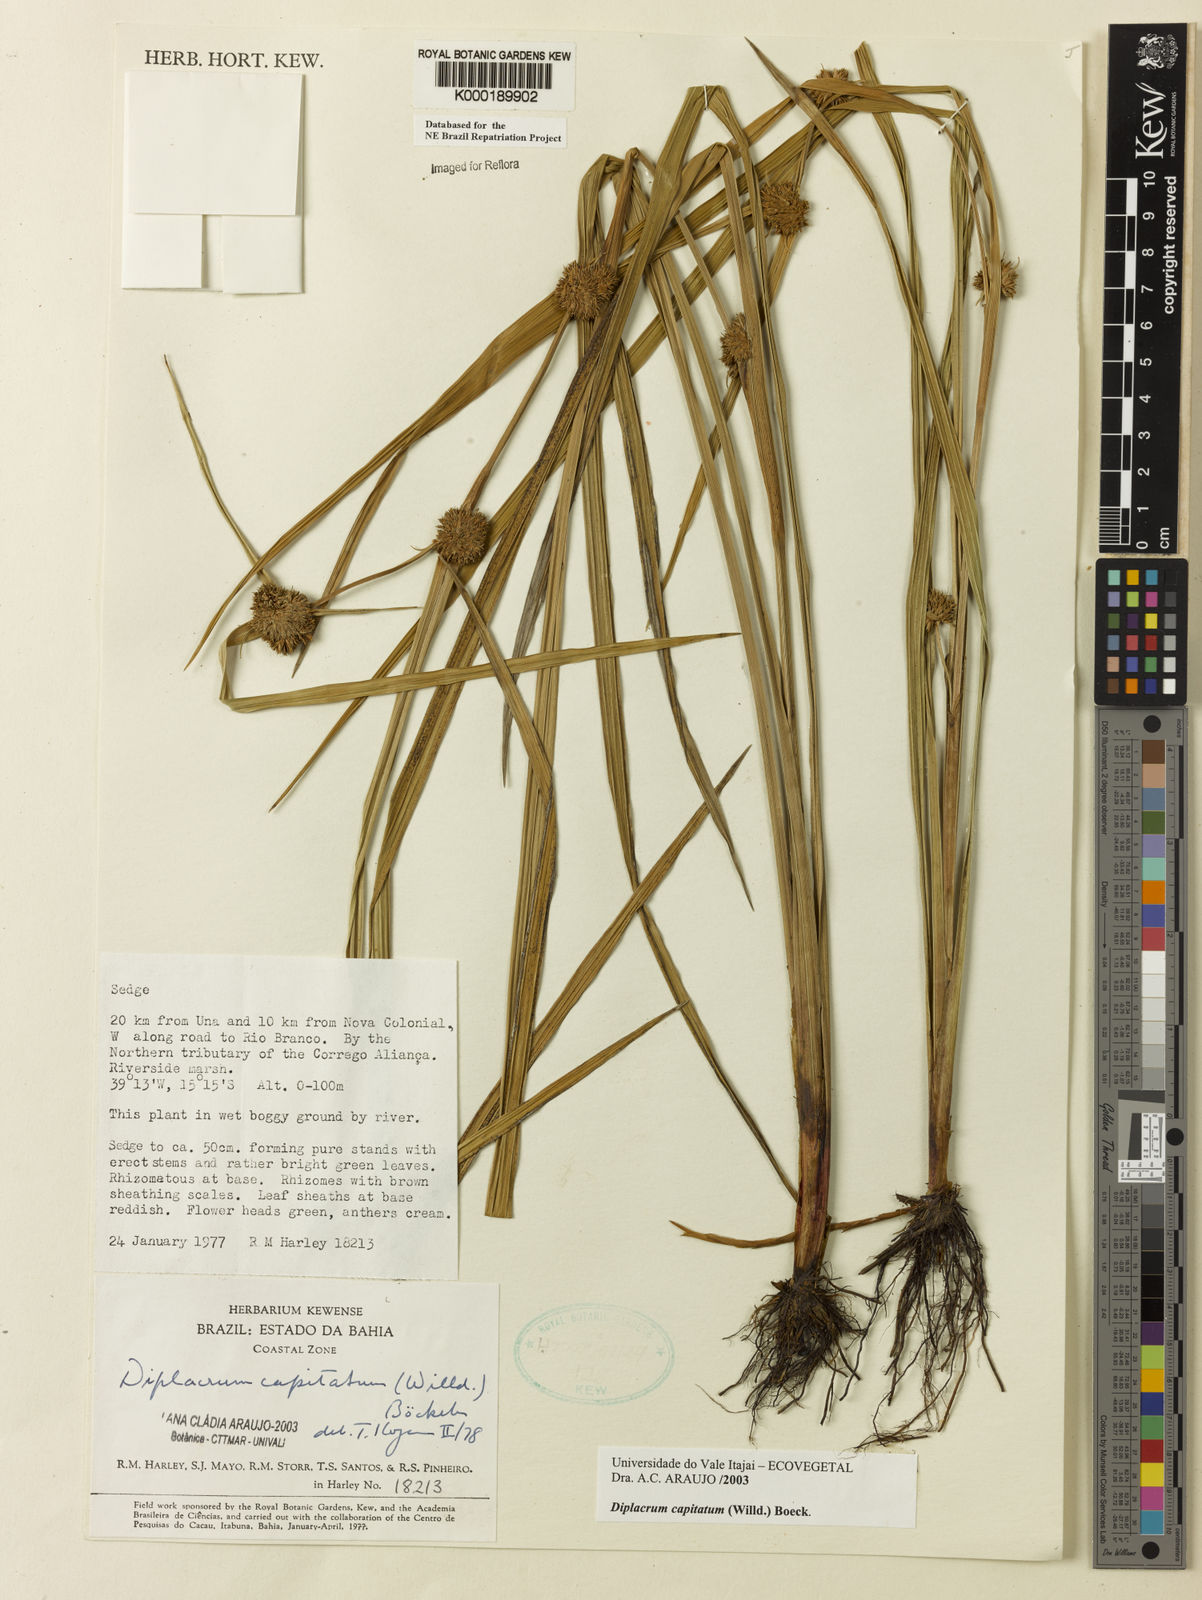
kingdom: Plantae
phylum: Tracheophyta
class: Liliopsida
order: Poales
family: Cyperaceae
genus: Diplacrum
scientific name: Diplacrum capitatum
